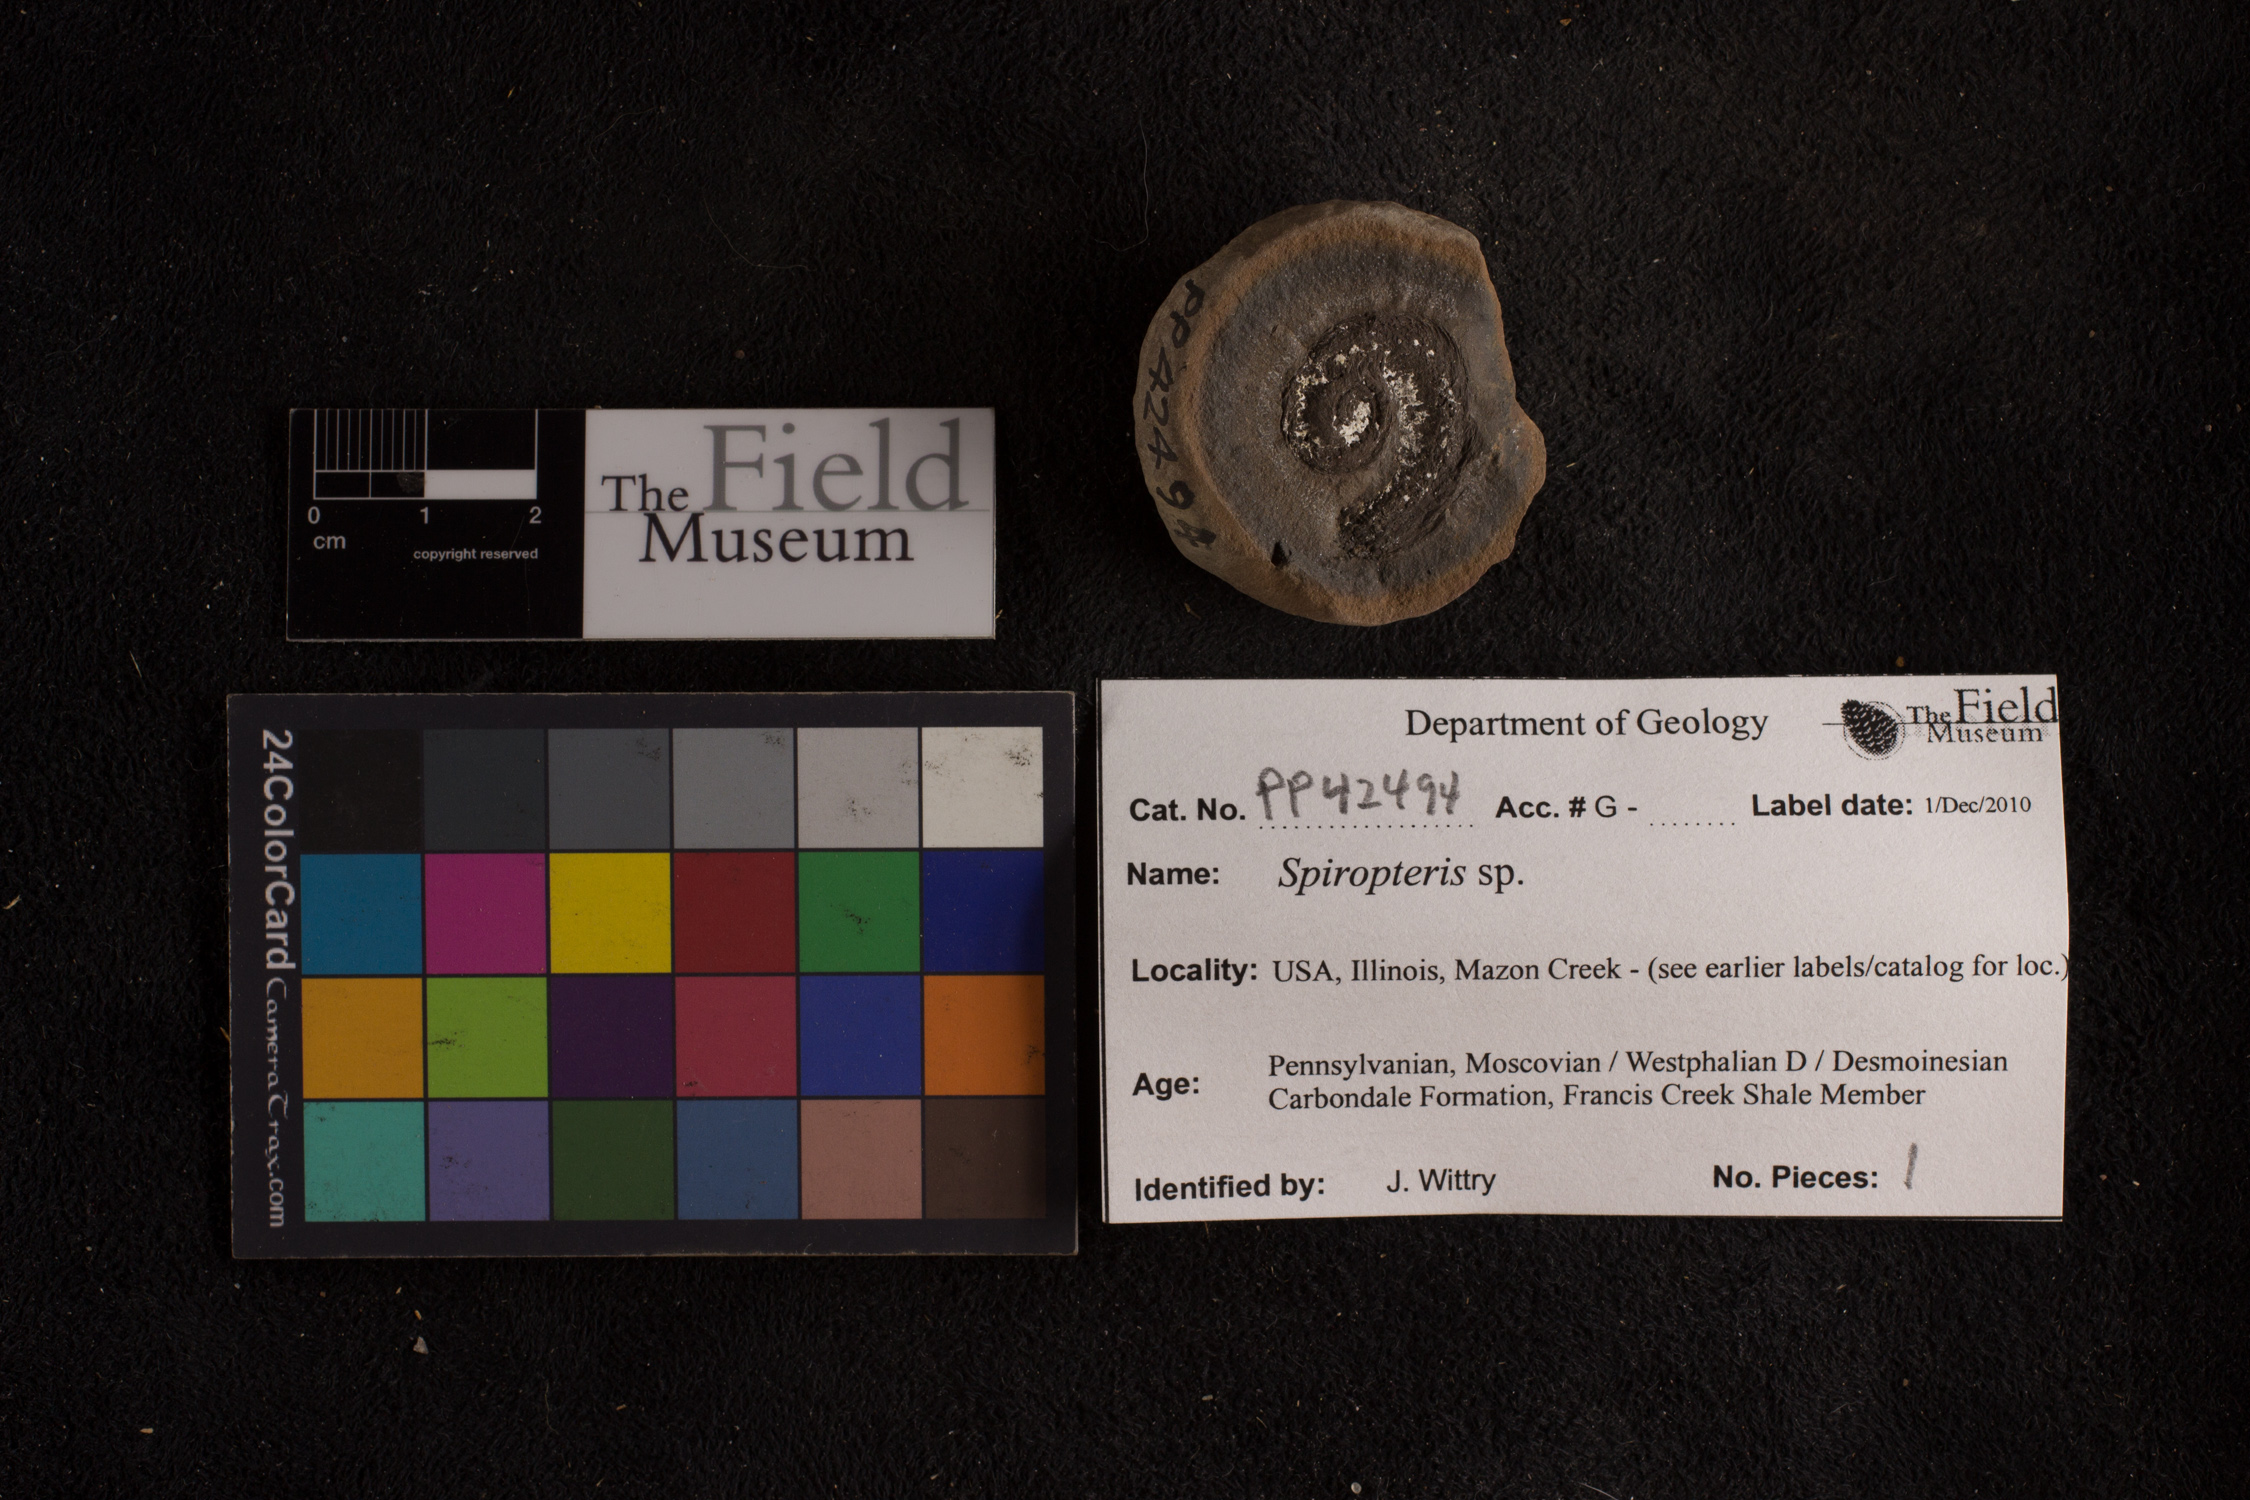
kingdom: Plantae
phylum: Tracheophyta
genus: Spiropteris
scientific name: Spiropteris
